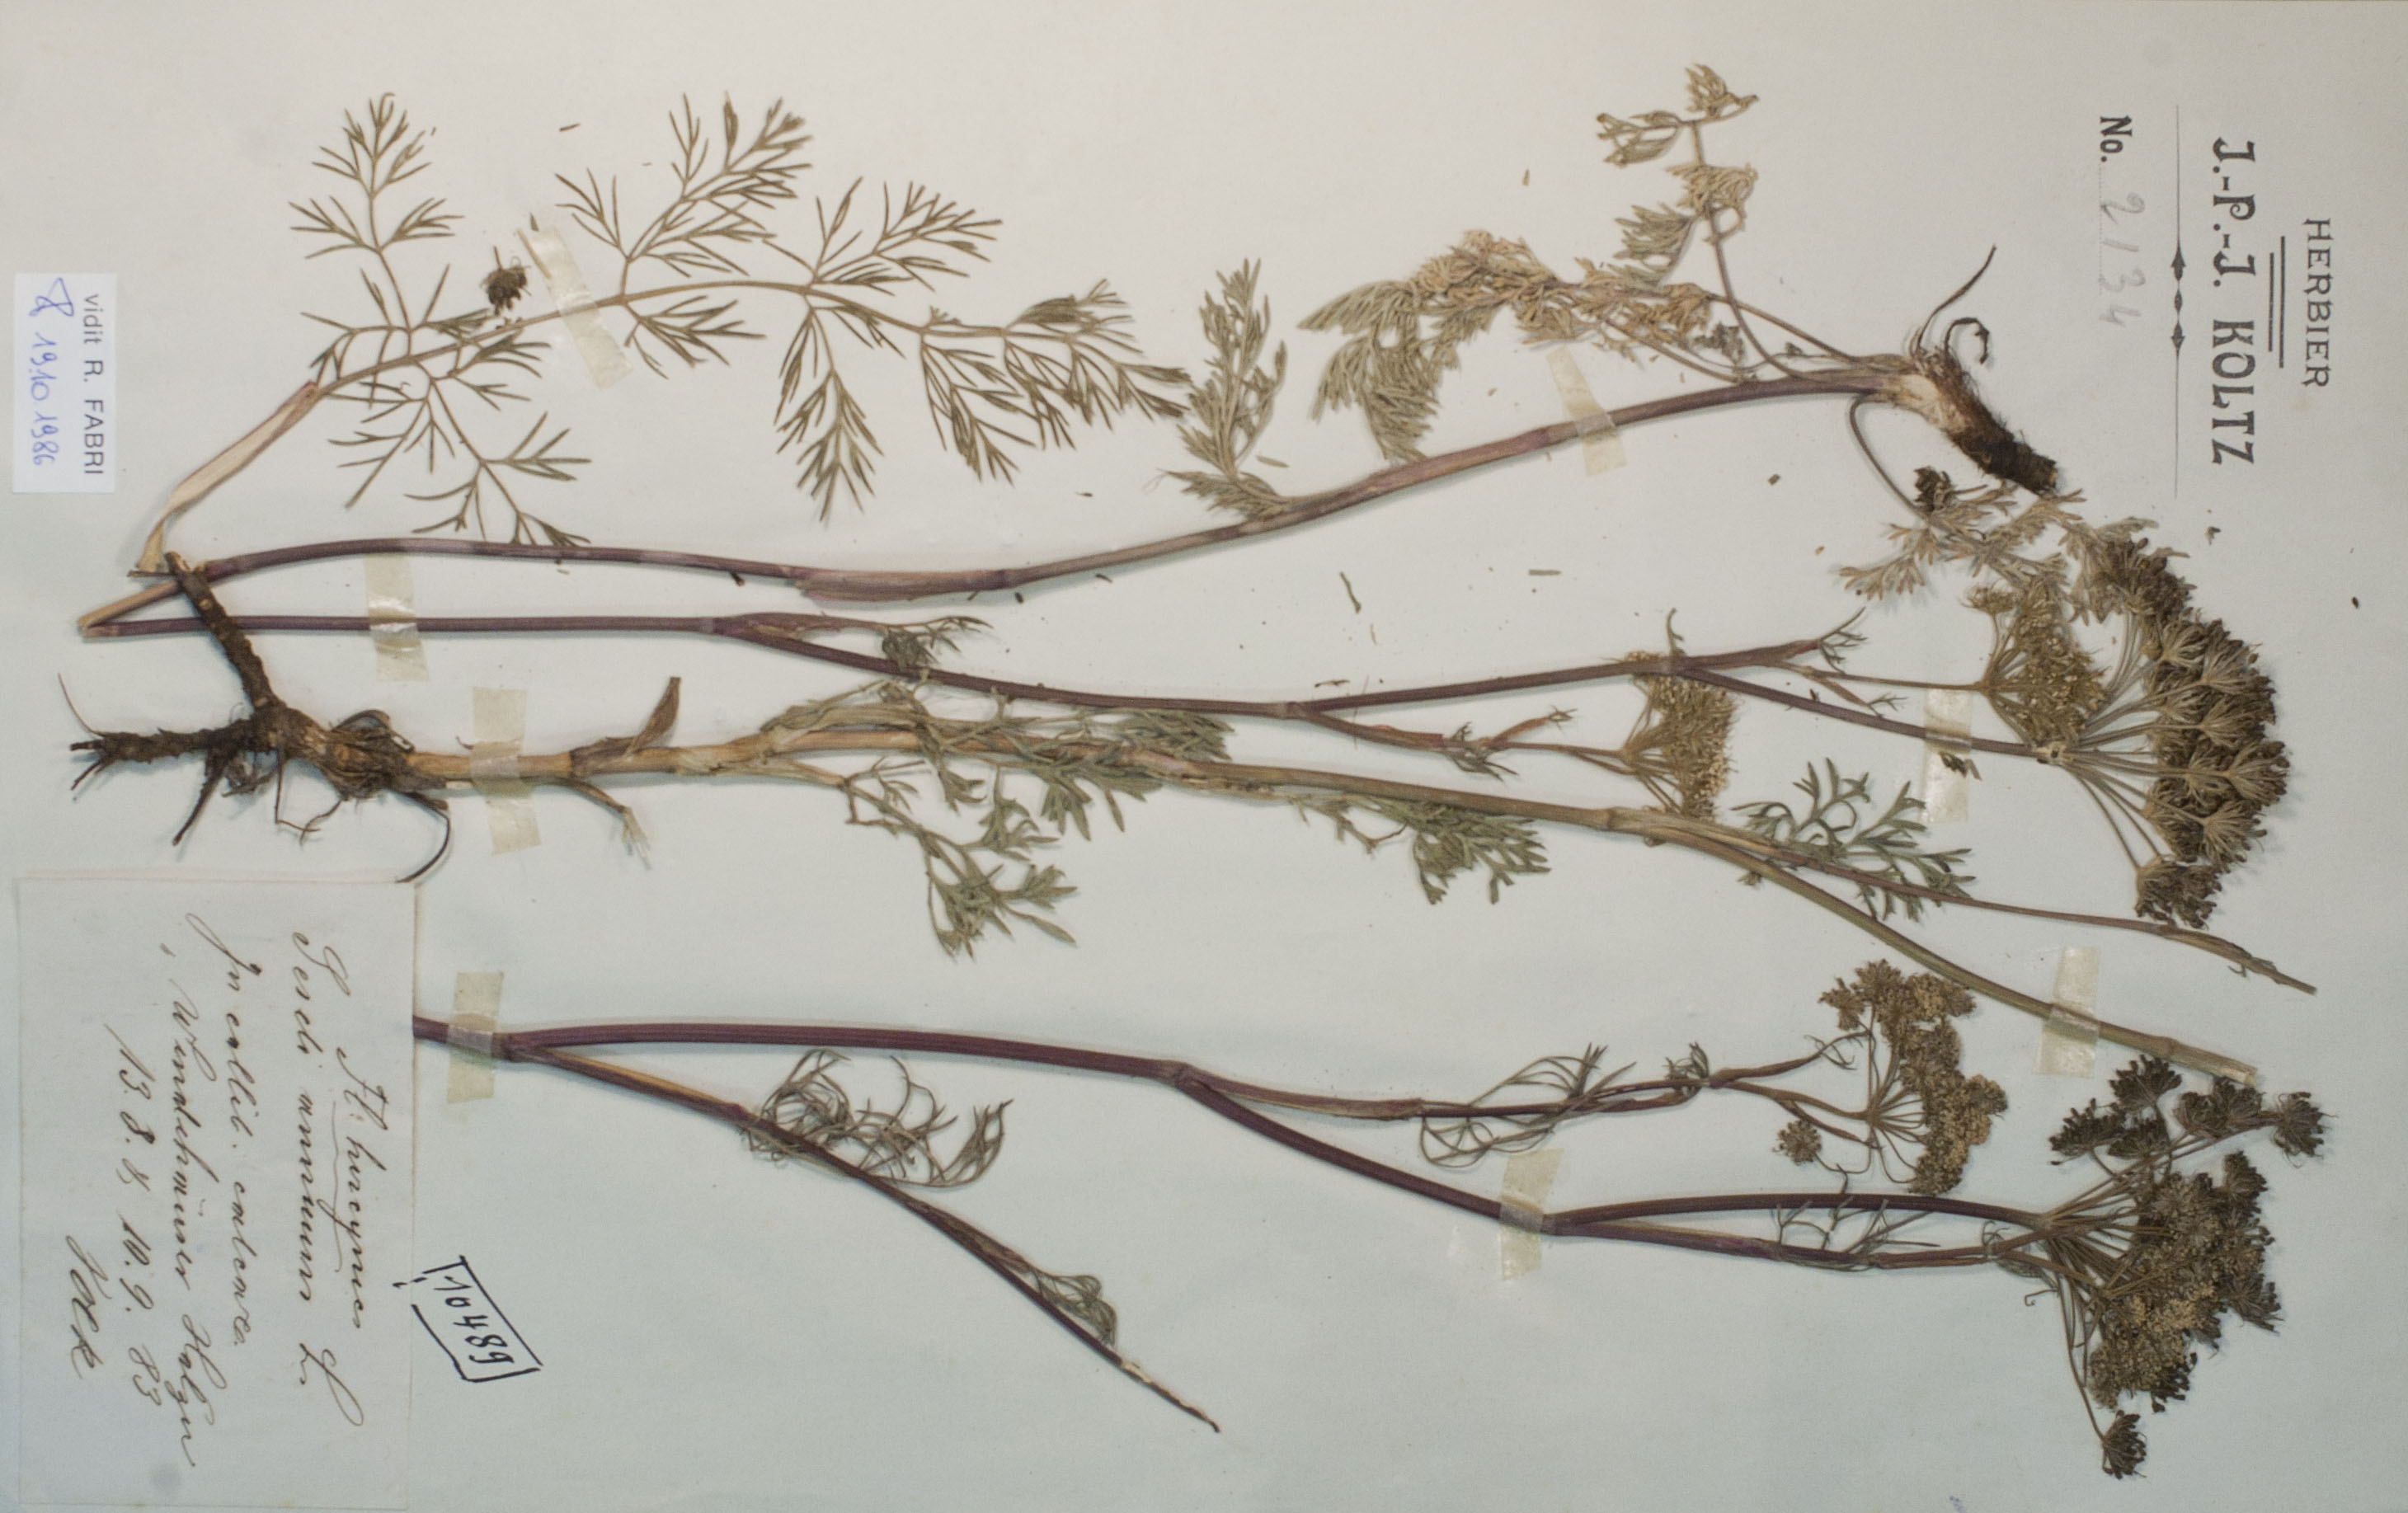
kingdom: Plantae
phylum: Tracheophyta
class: Magnoliopsida
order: Apiales
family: Apiaceae
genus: Seseli
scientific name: Seseli annuum
